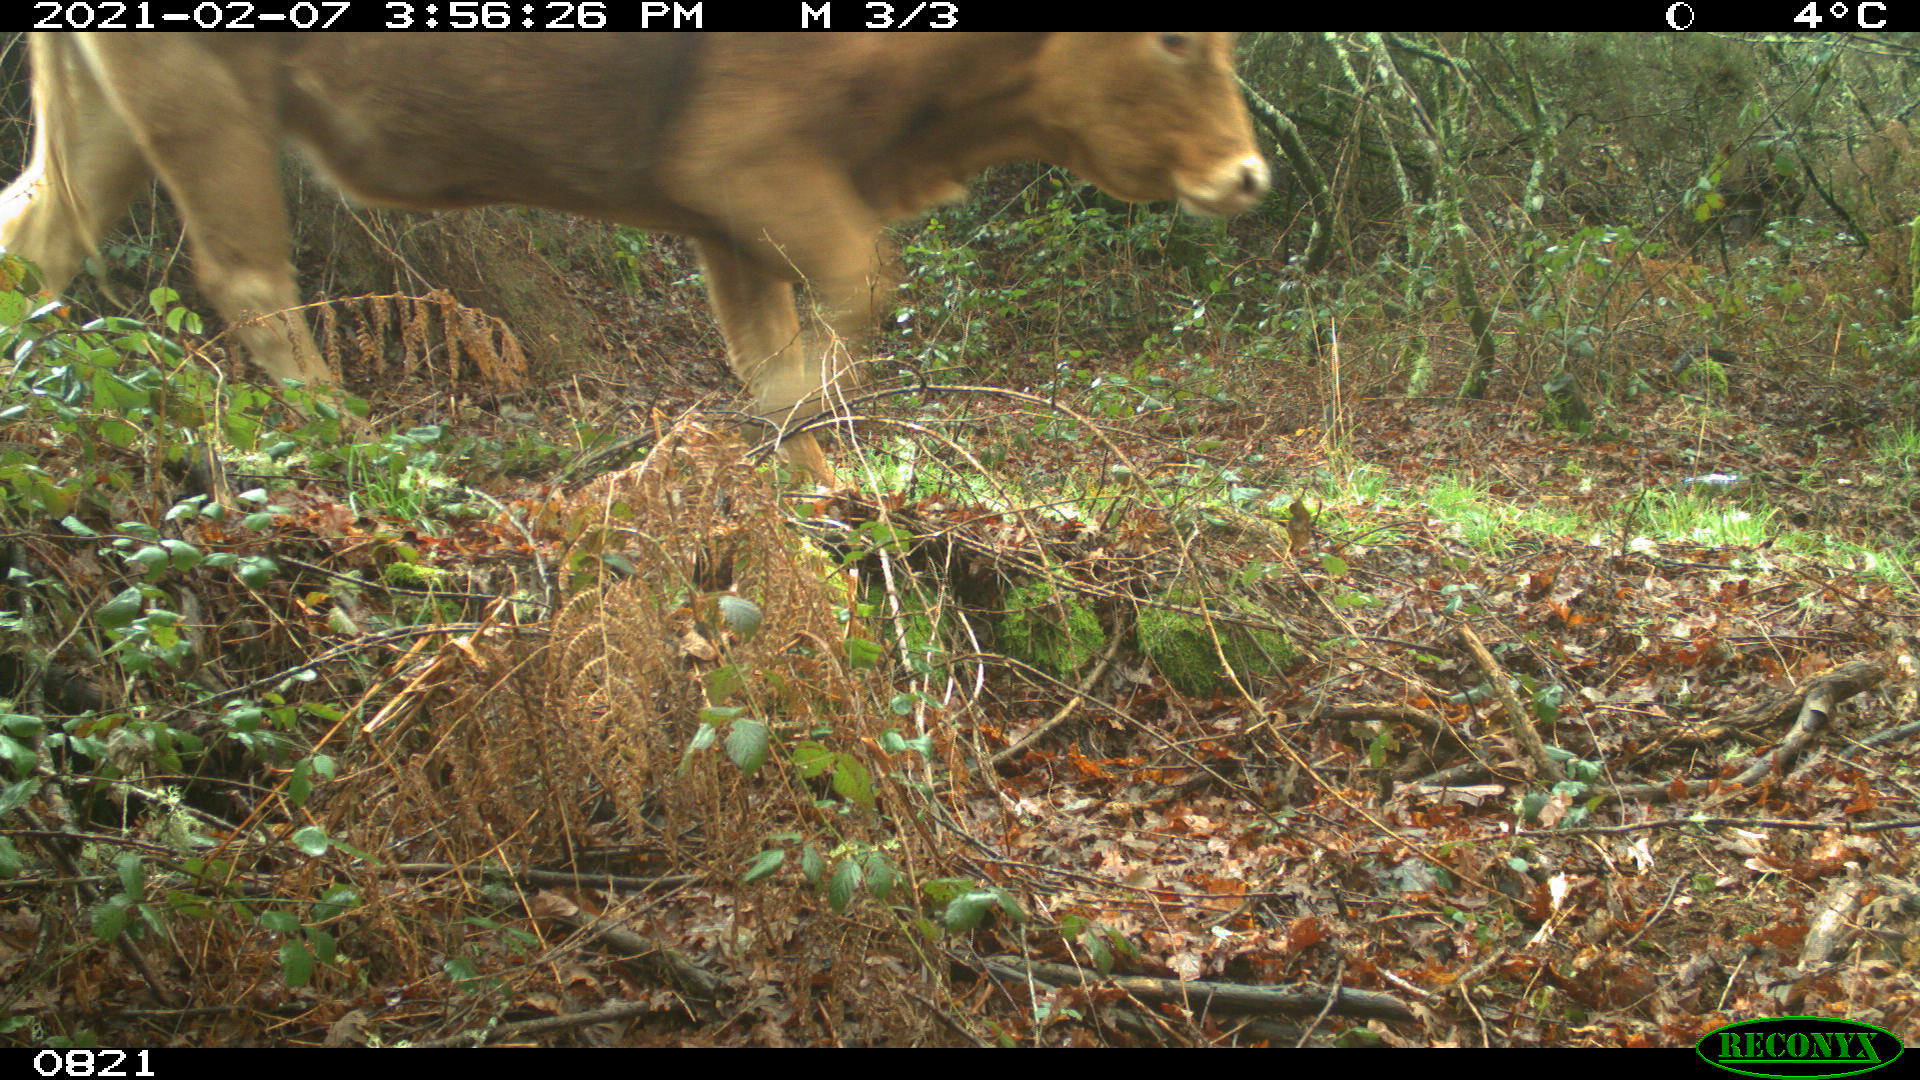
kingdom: Animalia
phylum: Chordata
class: Mammalia
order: Artiodactyla
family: Bovidae
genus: Bos
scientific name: Bos taurus
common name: Domesticated cattle
